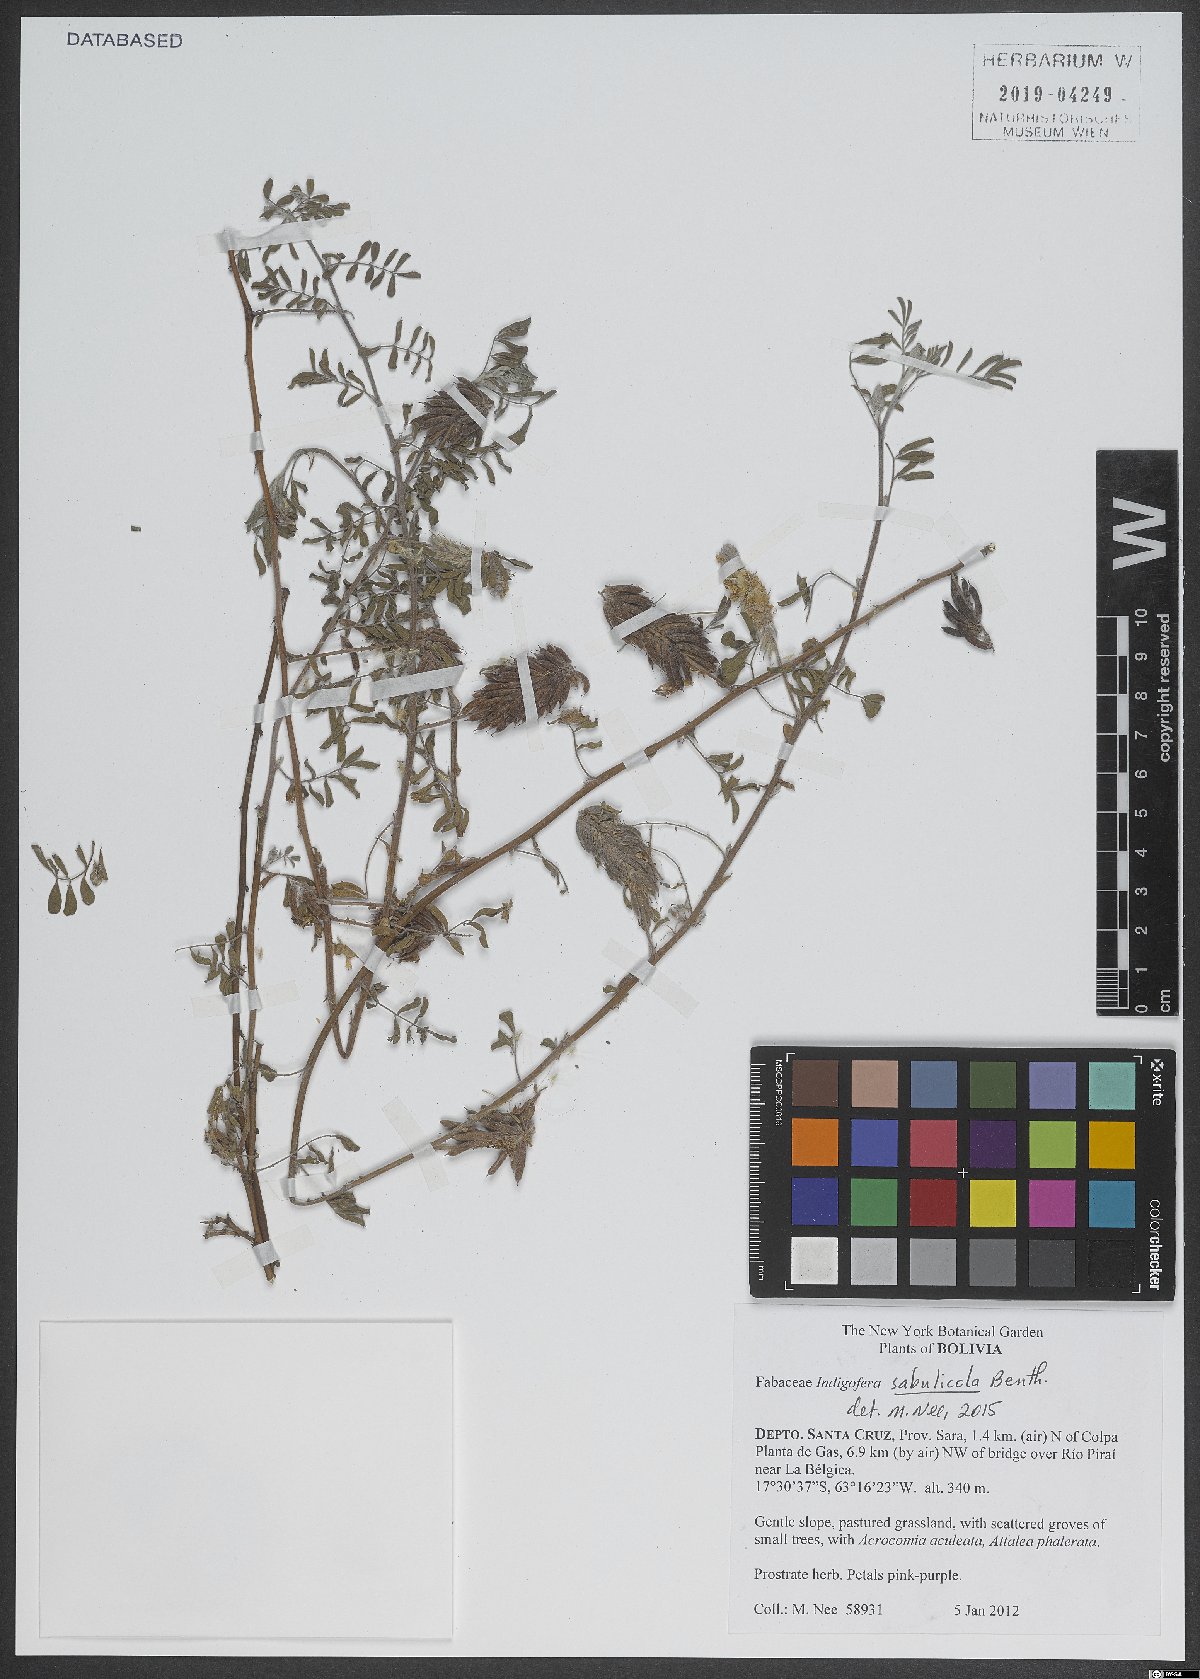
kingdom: Plantae
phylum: Tracheophyta
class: Magnoliopsida
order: Fabales
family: Fabaceae
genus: Indigofera
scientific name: Indigofera microcarpa
